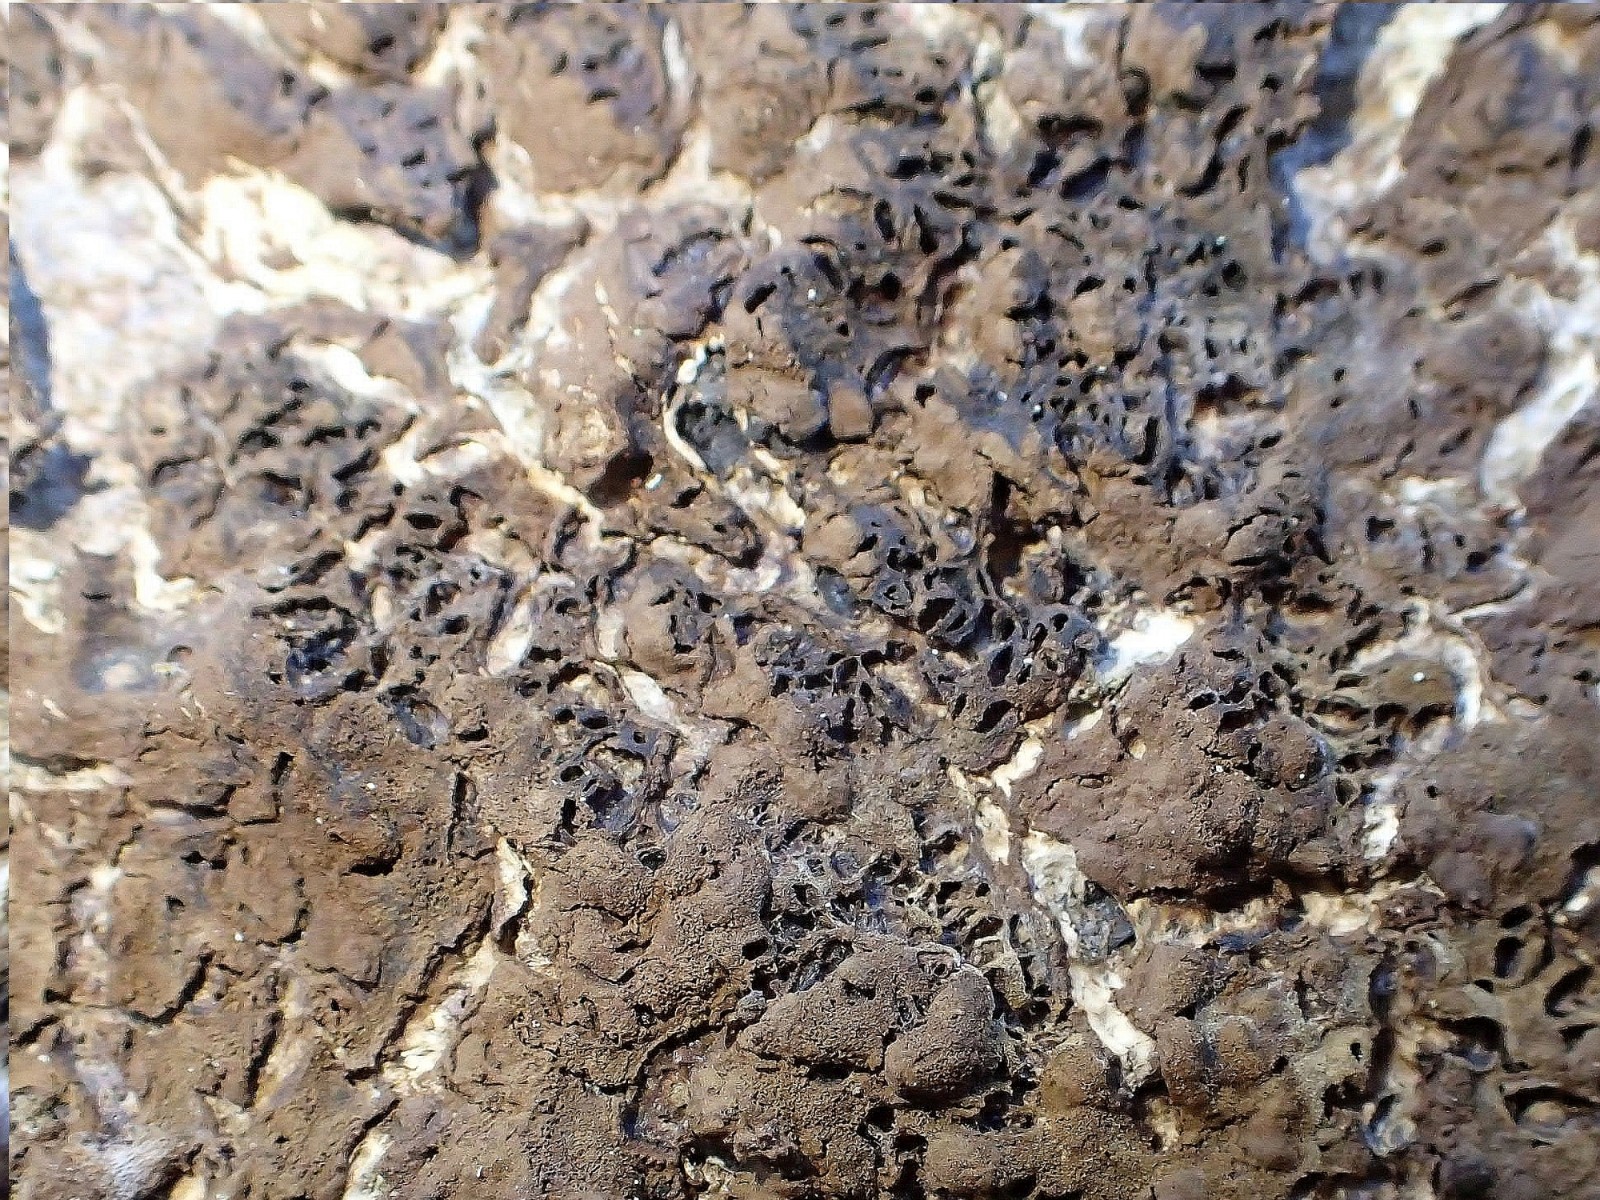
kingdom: Fungi
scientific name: Fungi
